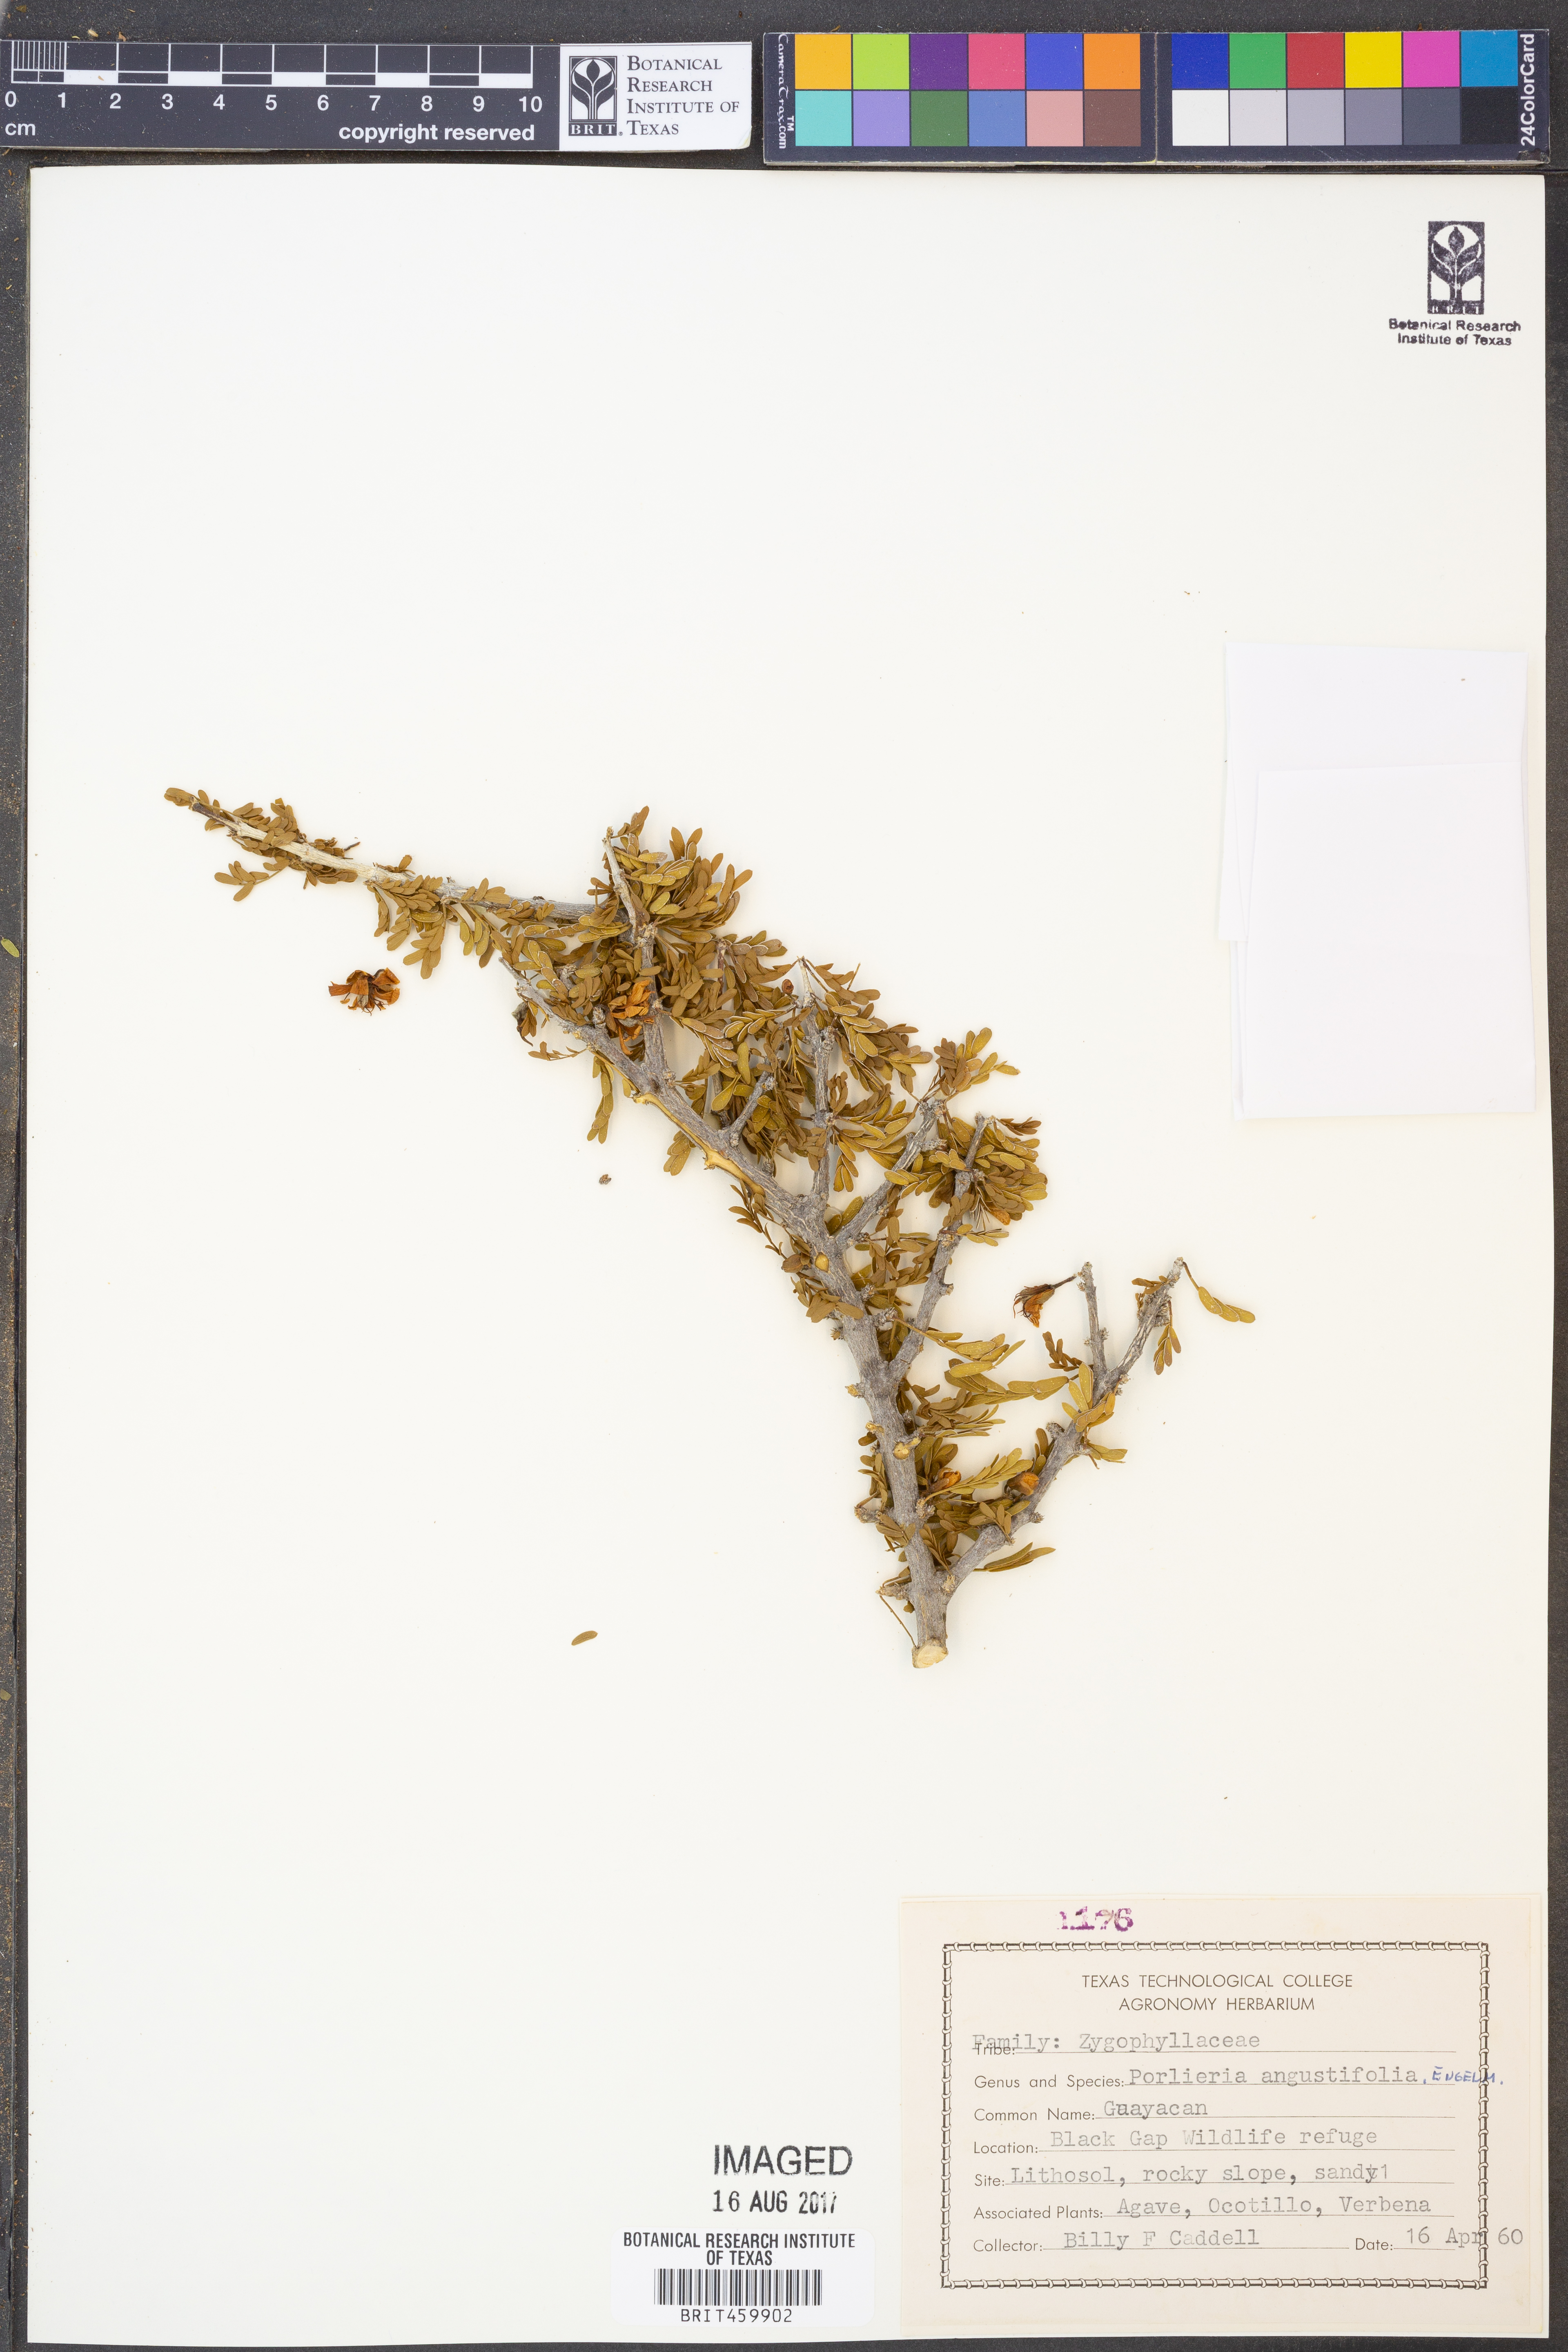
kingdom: Plantae
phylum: Tracheophyta
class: Magnoliopsida
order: Zygophyllales
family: Zygophyllaceae
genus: Porlieria
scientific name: Porlieria angustifolia
